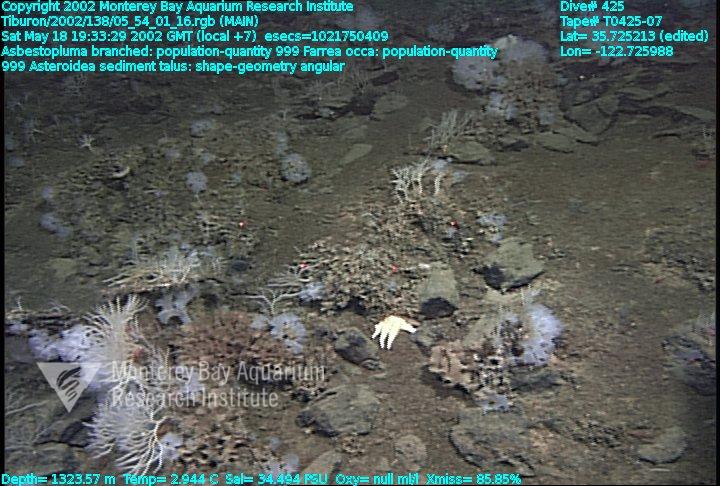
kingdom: Animalia
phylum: Porifera
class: Demospongiae
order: Poecilosclerida
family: Cladorhizidae
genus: Asbestopluma
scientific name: Asbestopluma monticola
